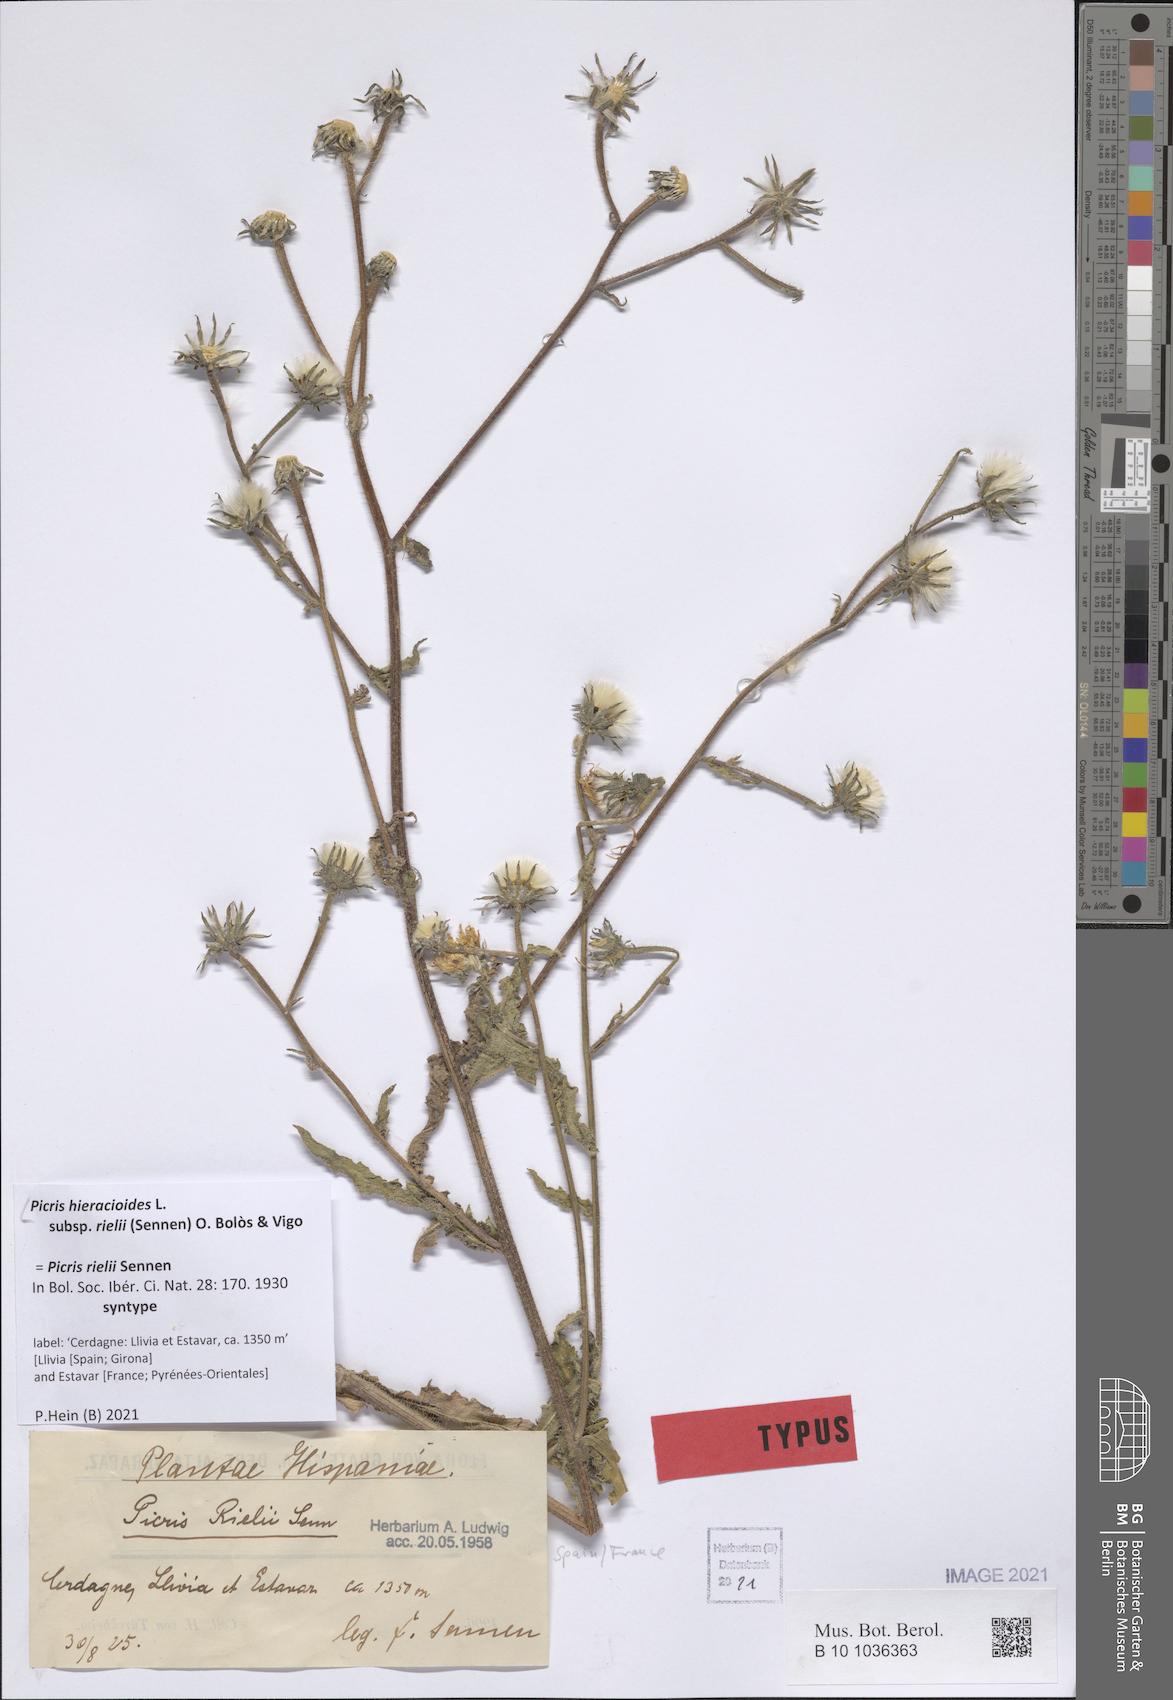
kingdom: Plantae
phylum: Tracheophyta
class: Magnoliopsida
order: Asterales
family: Asteraceae
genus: Picris
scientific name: Picris hieracioides
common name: Hawkweed oxtongue
